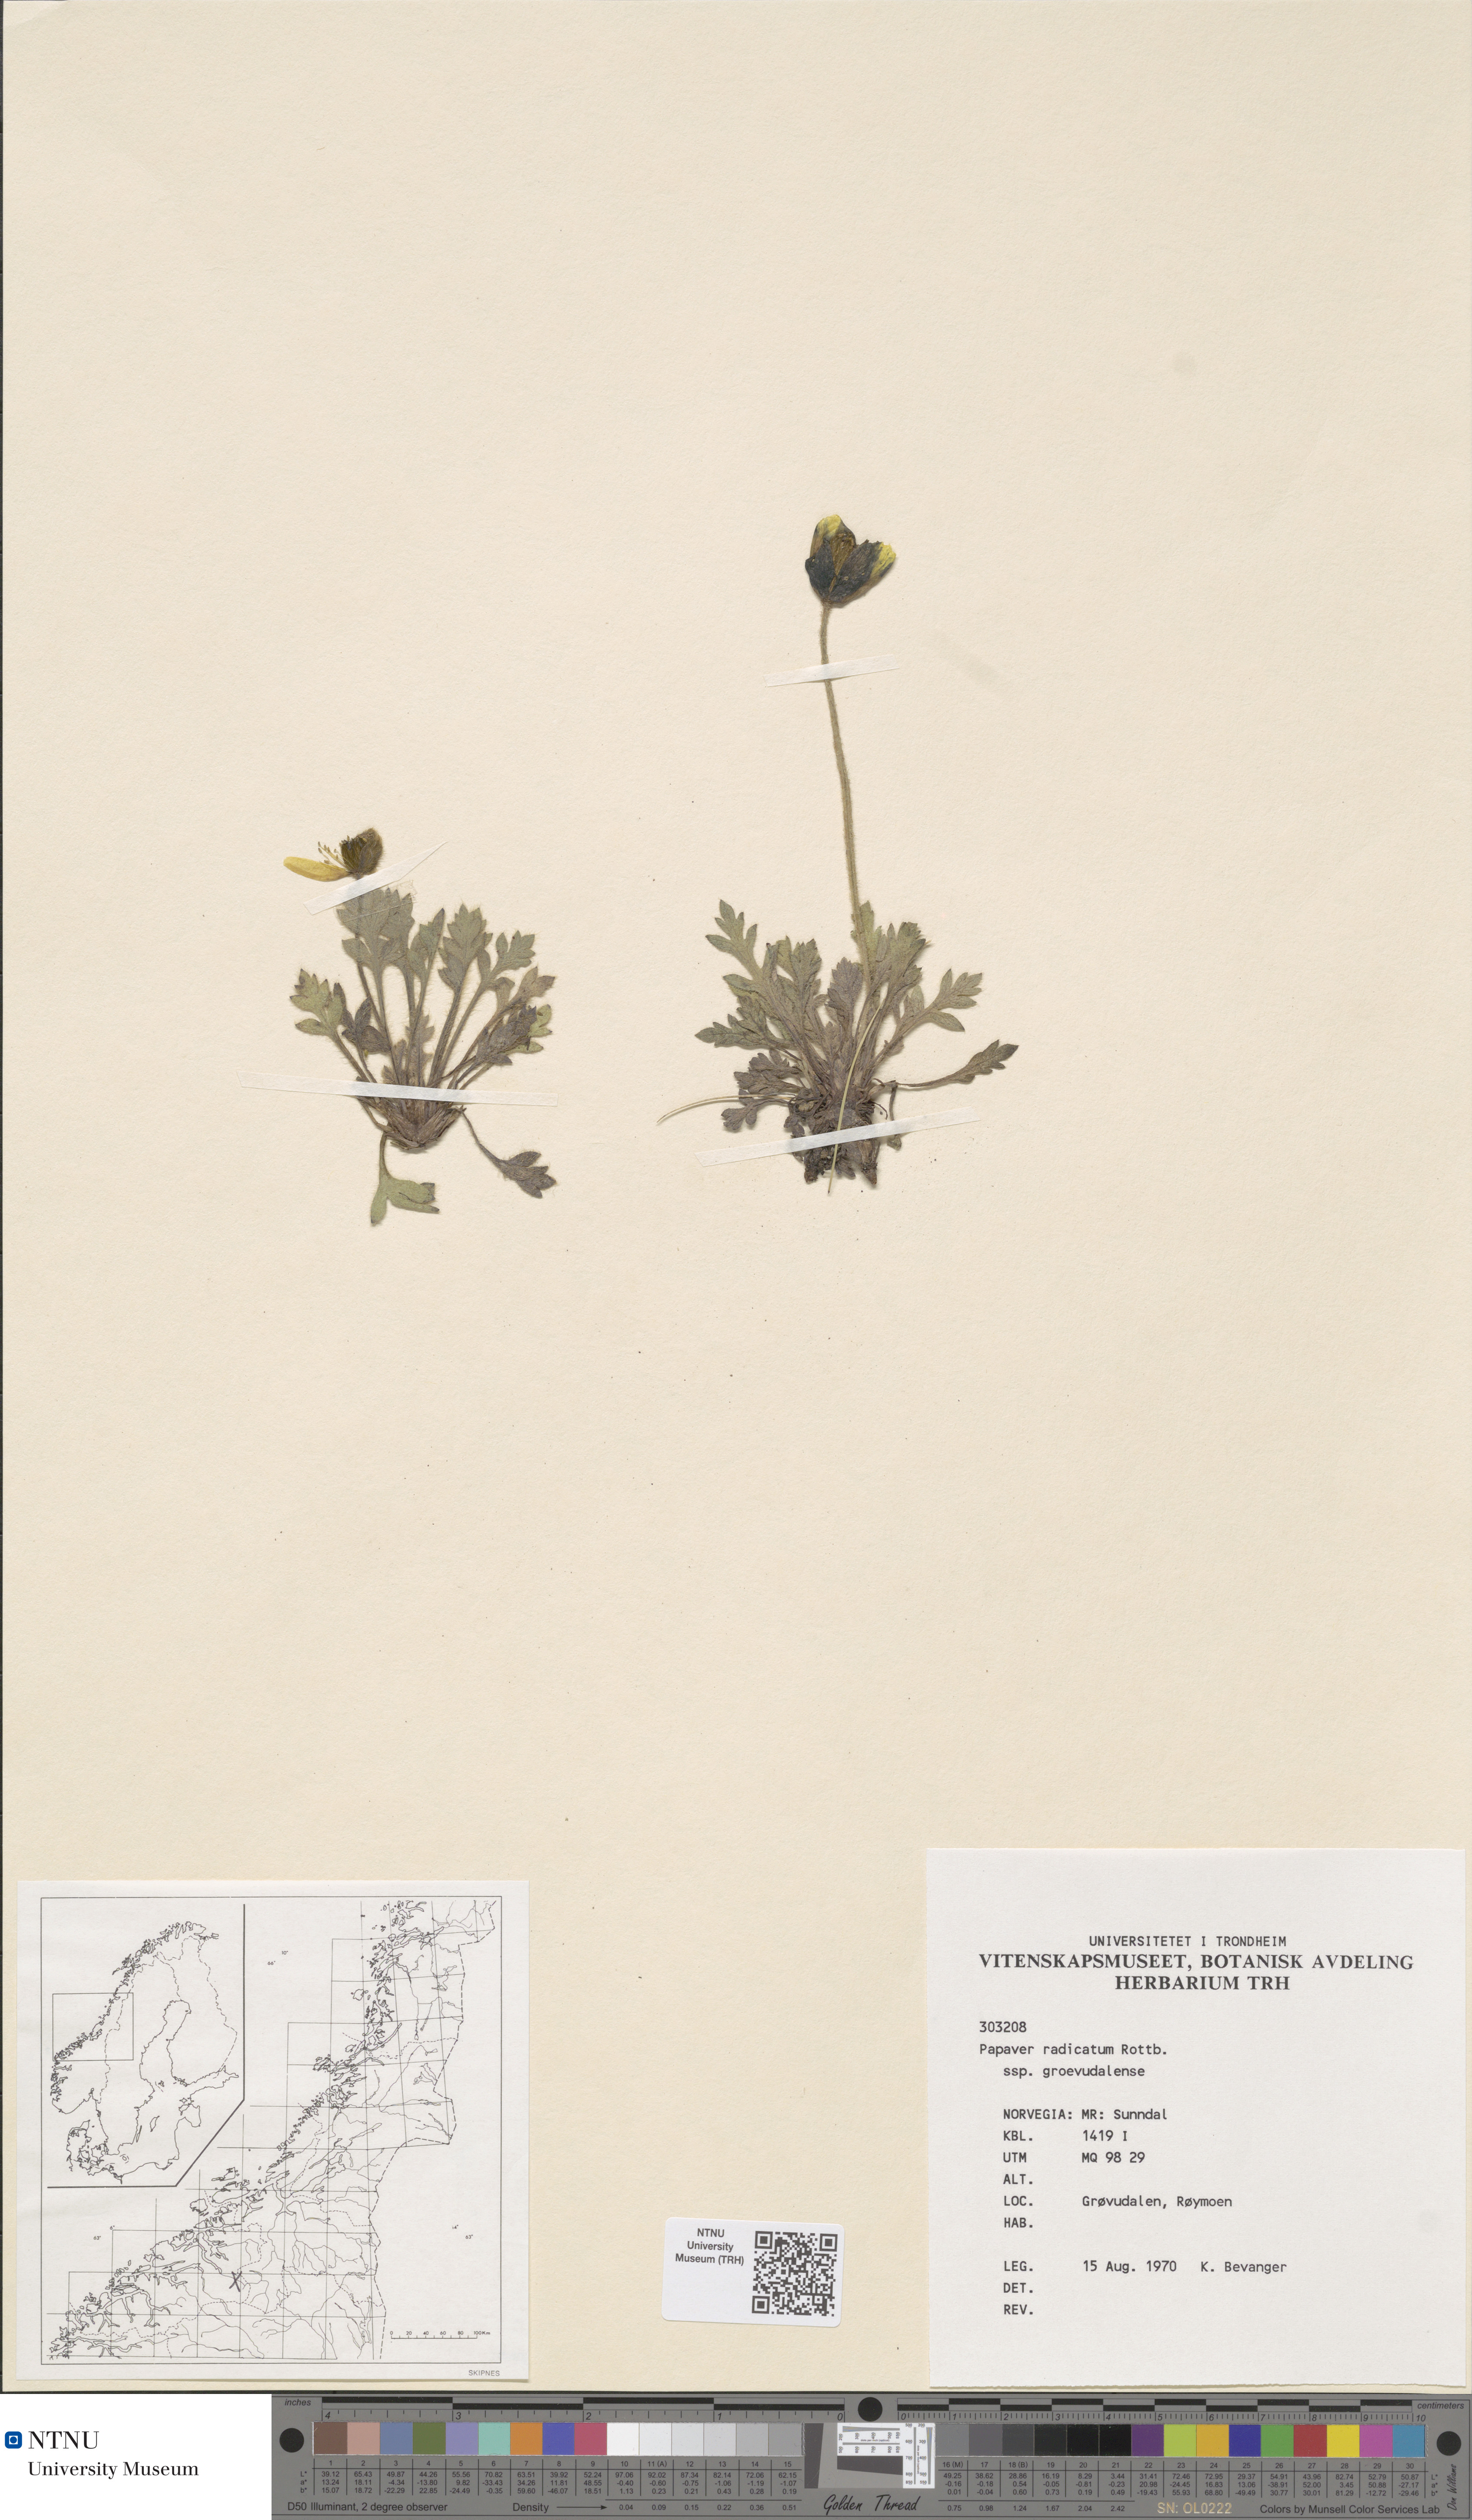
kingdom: Plantae
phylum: Tracheophyta
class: Magnoliopsida
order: Ranunculales
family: Papaveraceae
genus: Papaver
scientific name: Papaver radicatum
